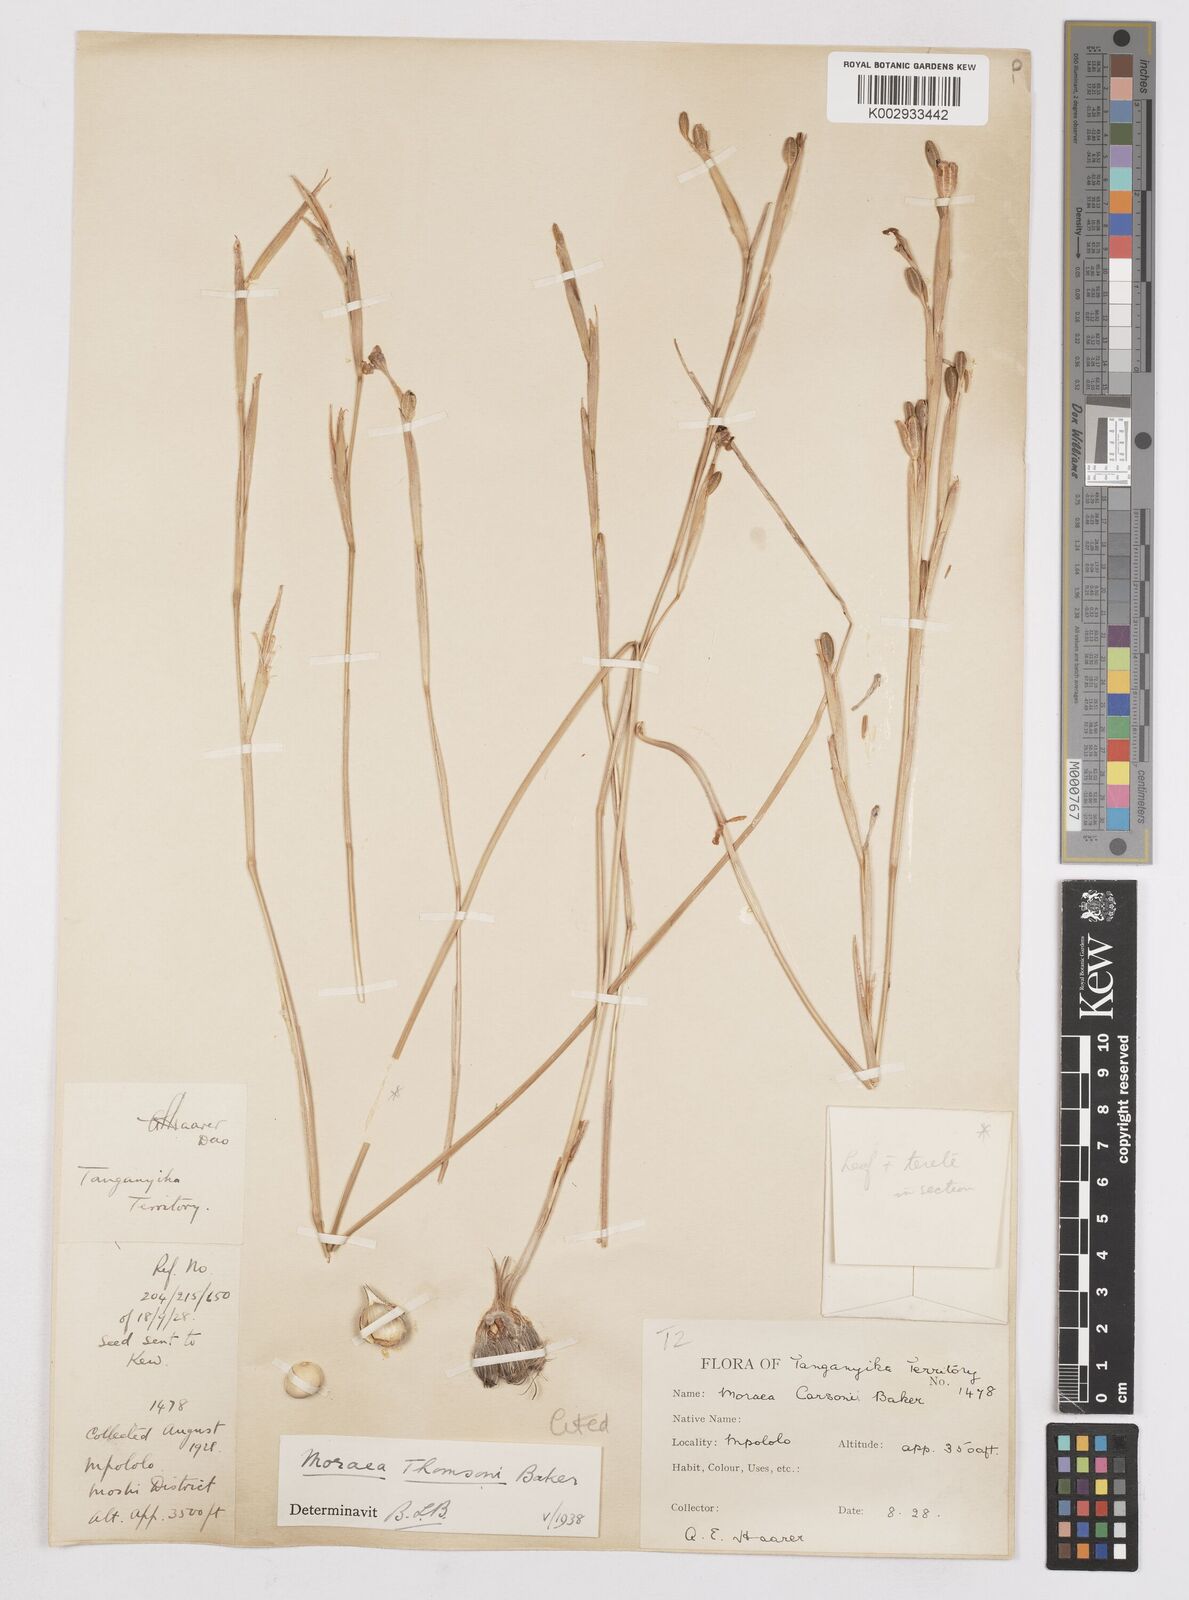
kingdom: Plantae
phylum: Tracheophyta
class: Liliopsida
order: Asparagales
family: Iridaceae
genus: Moraea
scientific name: Moraea stricta
